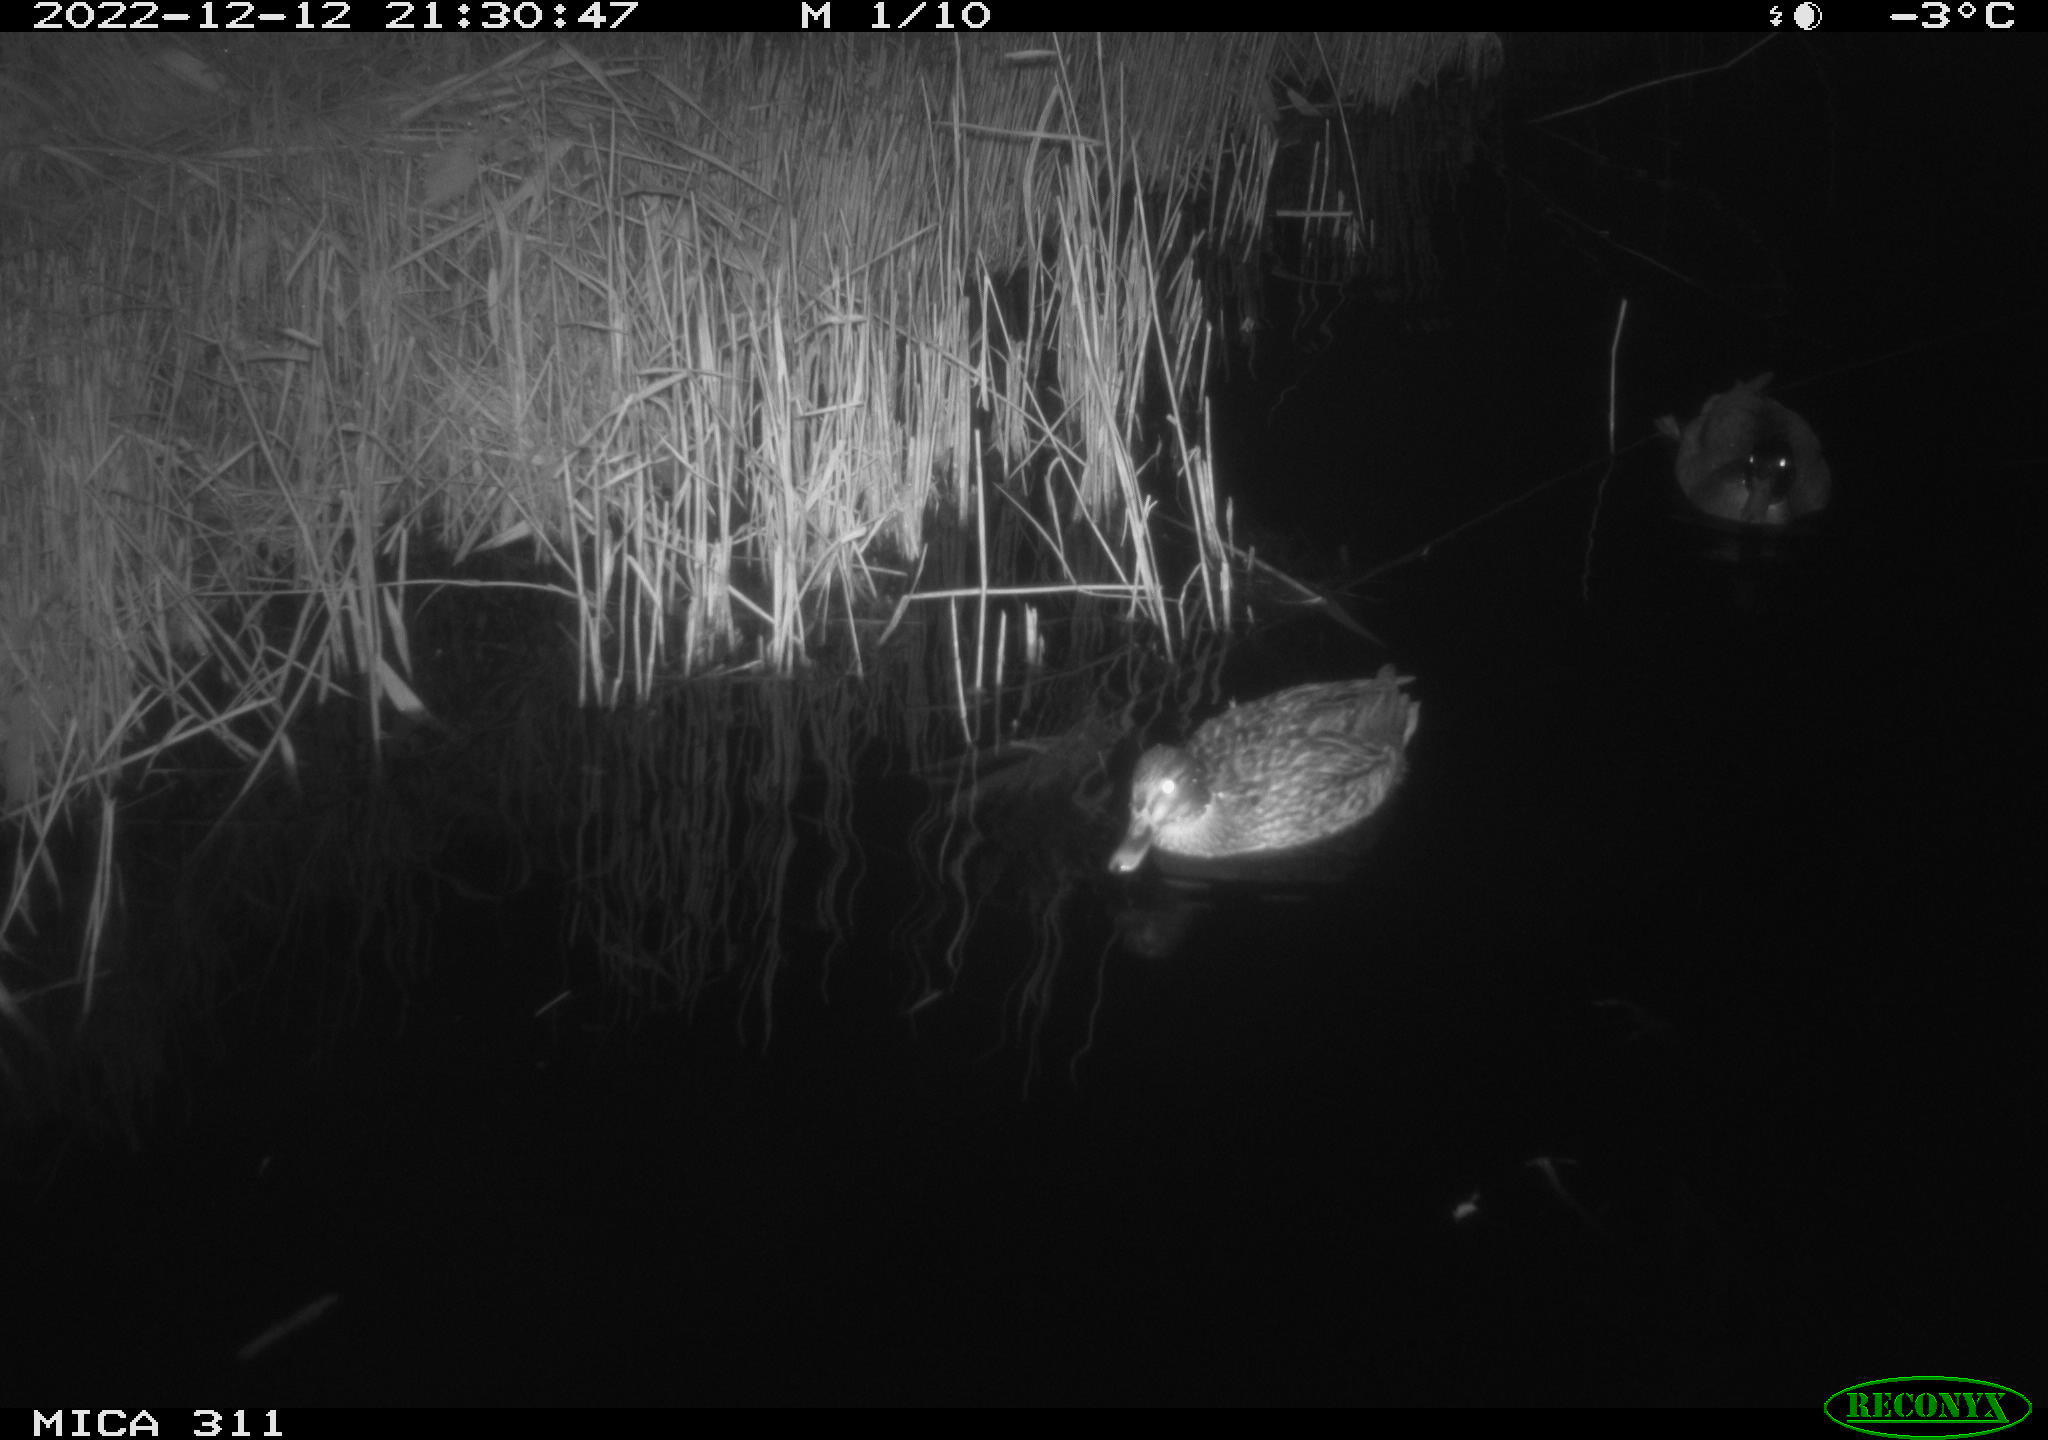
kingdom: Animalia
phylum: Chordata
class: Aves
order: Anseriformes
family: Anatidae
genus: Anas
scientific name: Anas
